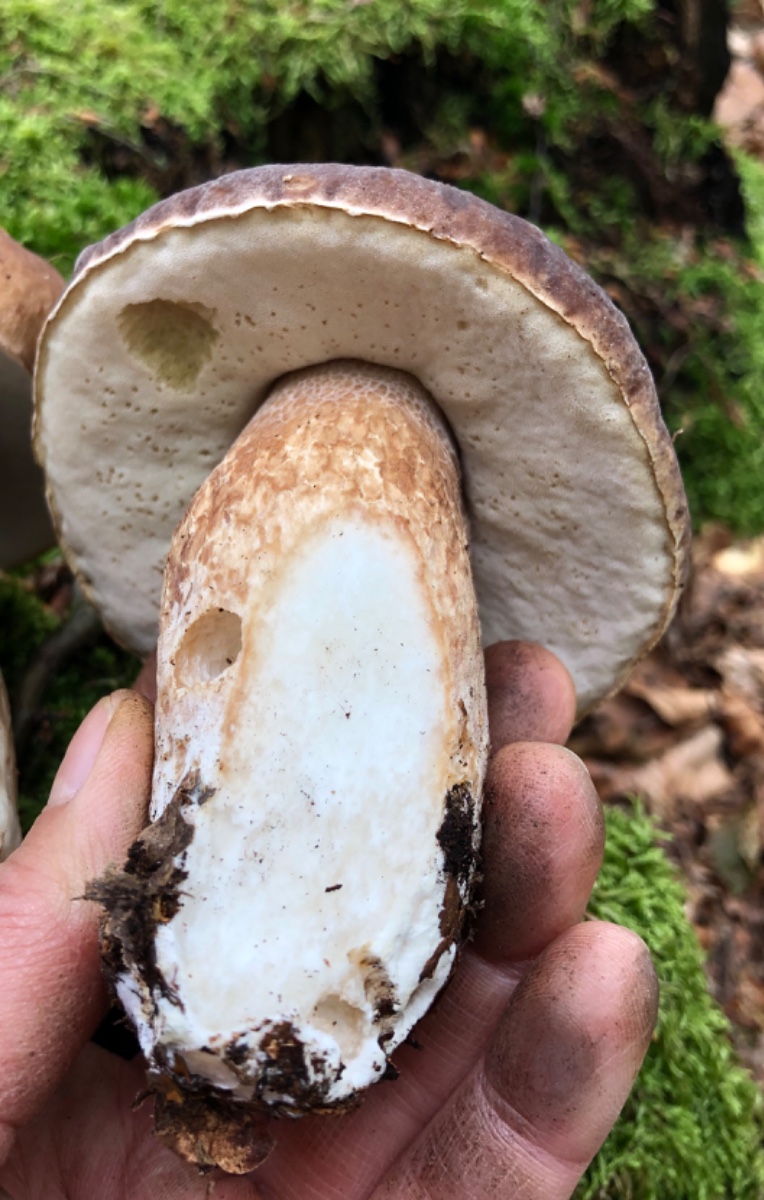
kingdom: Fungi
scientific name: Fungi
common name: bronze-rørhat
